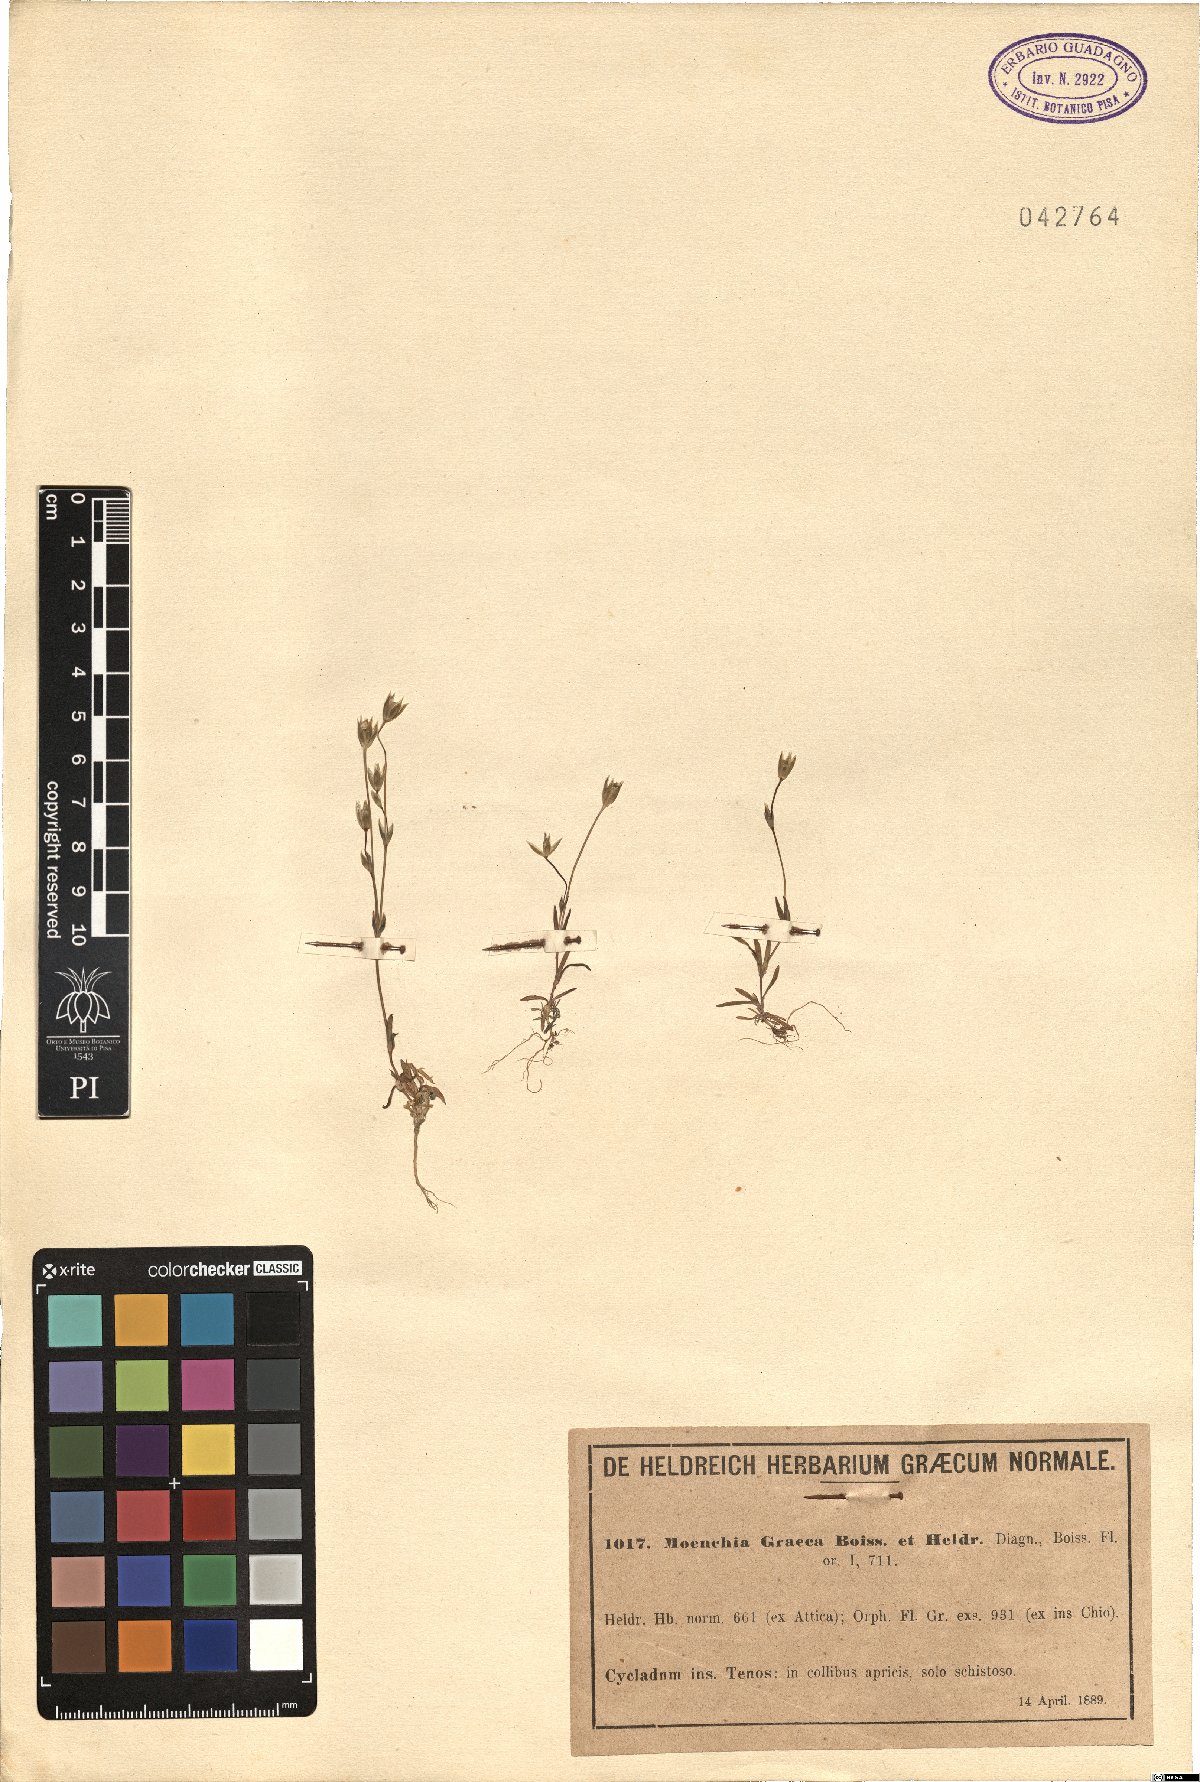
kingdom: Plantae
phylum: Tracheophyta
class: Magnoliopsida
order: Caryophyllales
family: Caryophyllaceae
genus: Moenchia
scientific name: Moenchia graeca
